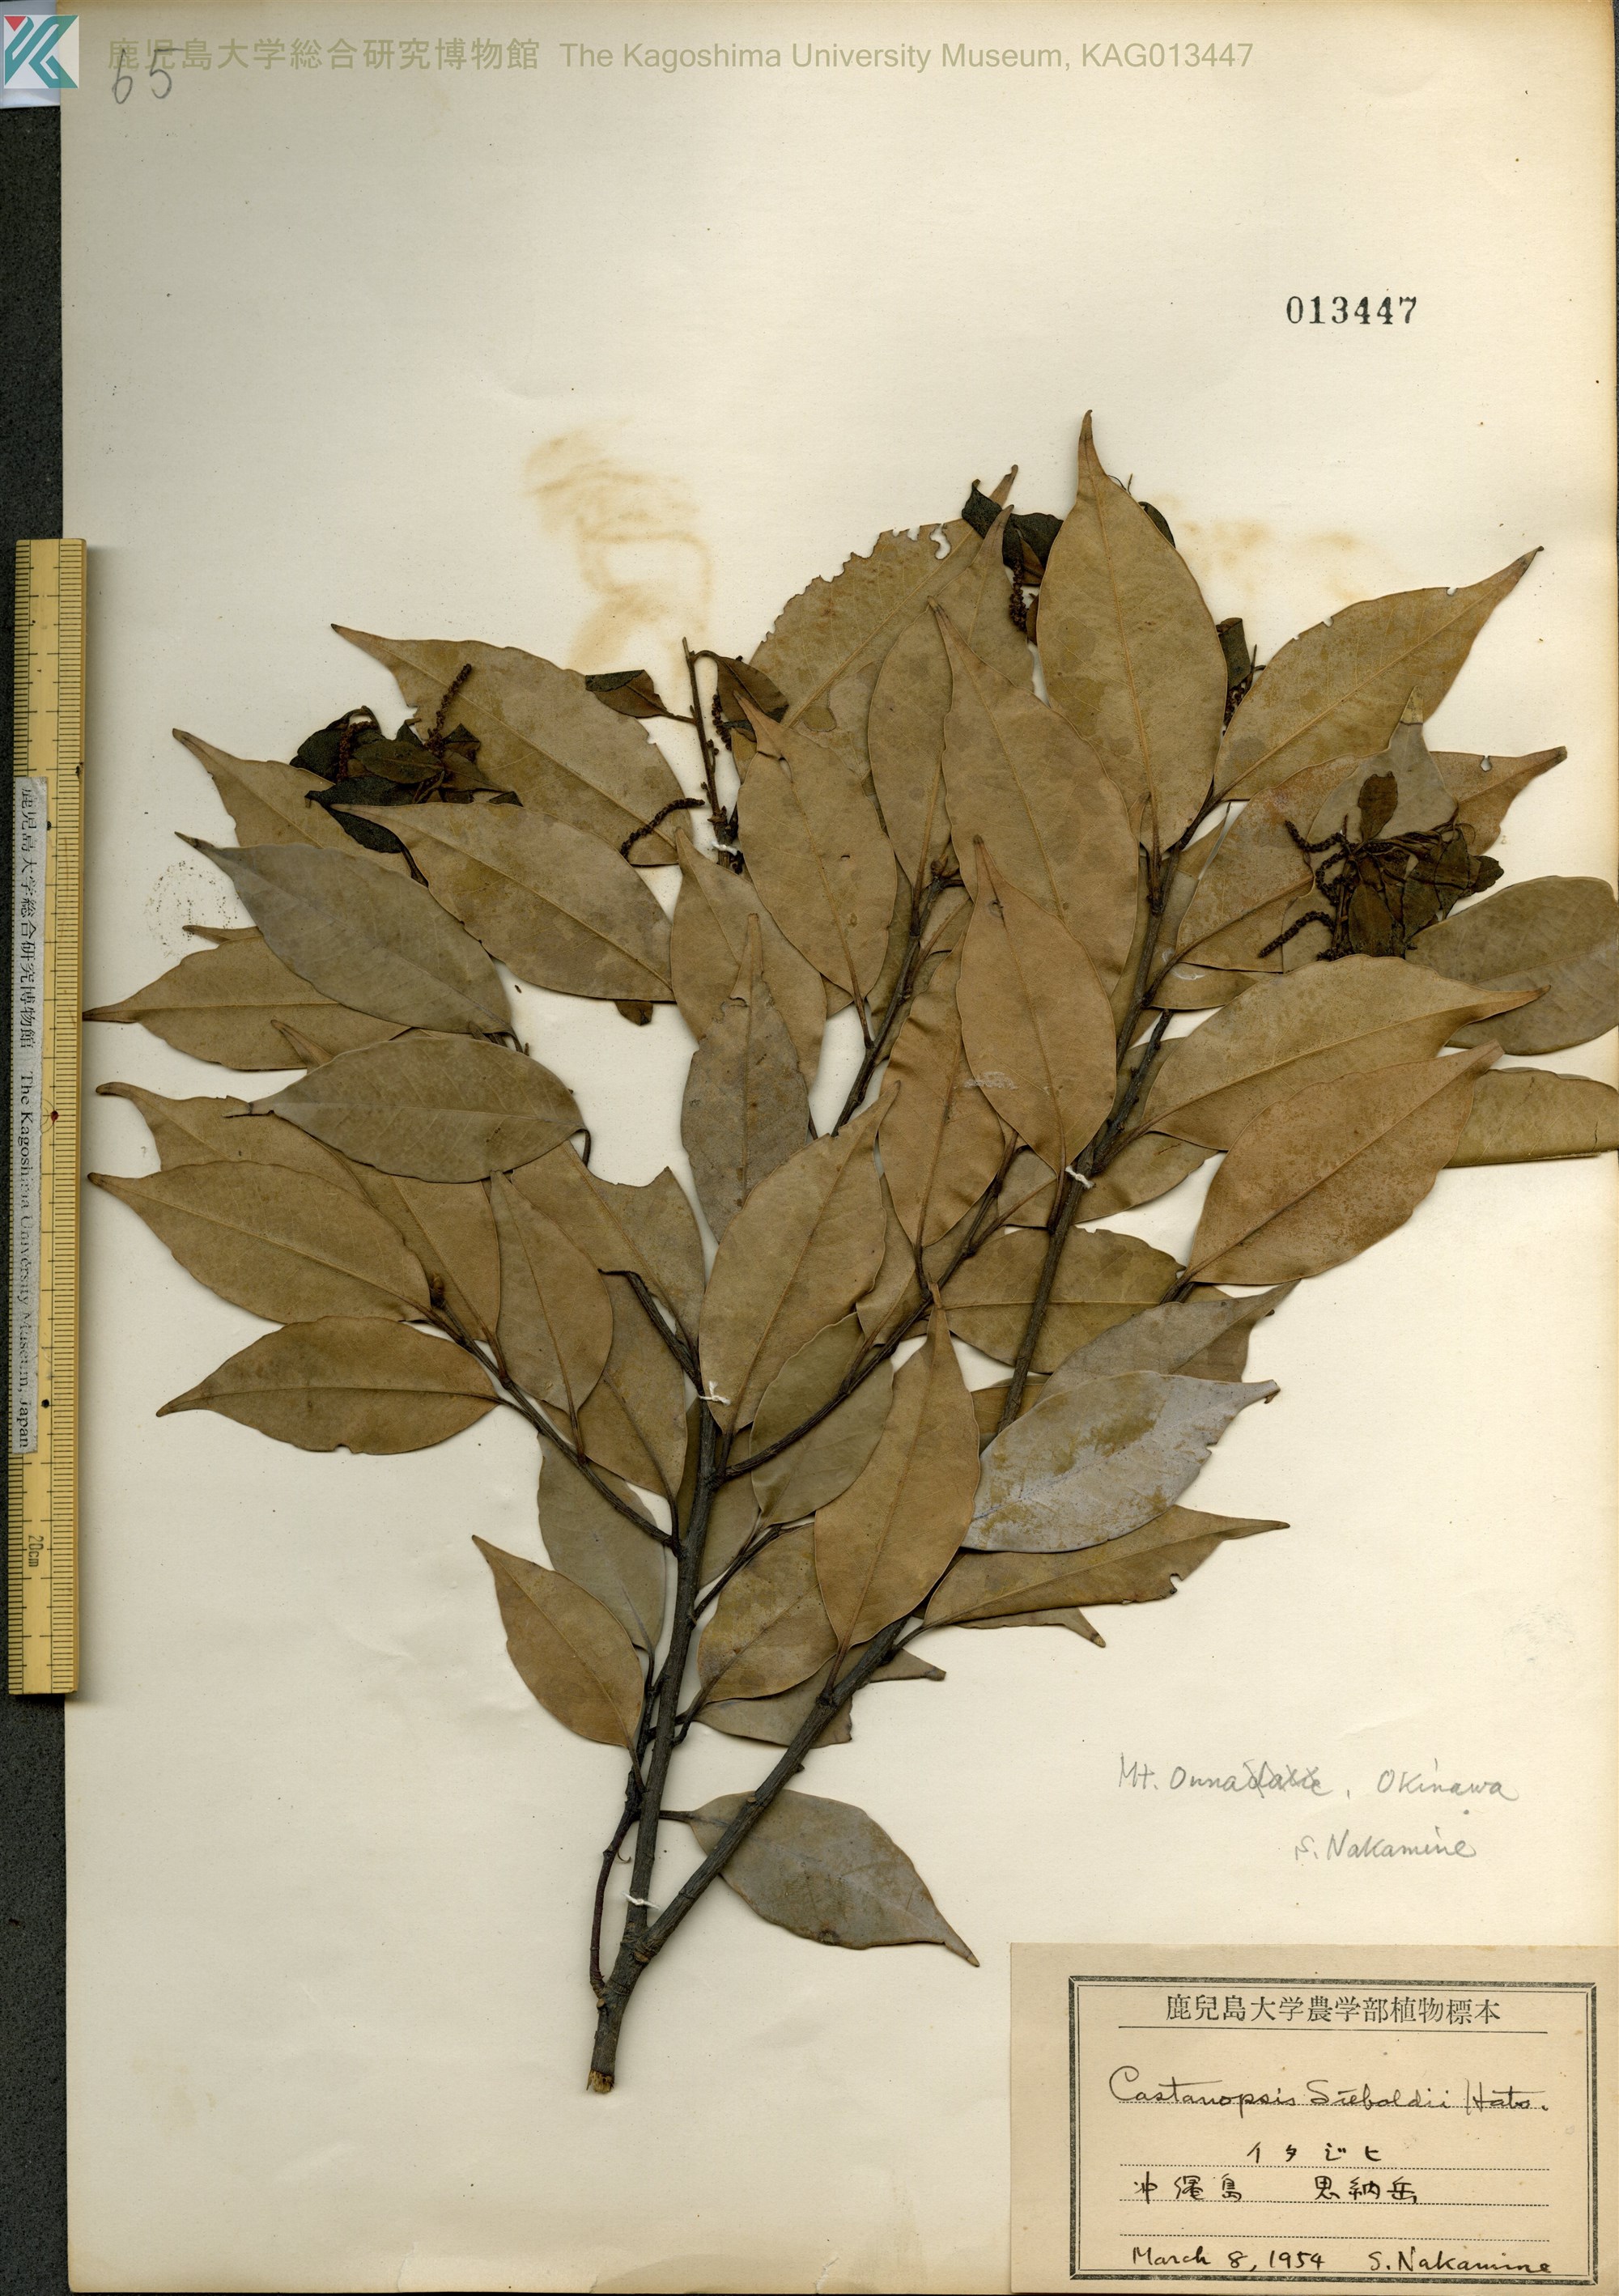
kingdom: Plantae
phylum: Tracheophyta
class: Magnoliopsida
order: Fagales
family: Fagaceae
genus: Castanopsis
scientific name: Castanopsis sieboldii
